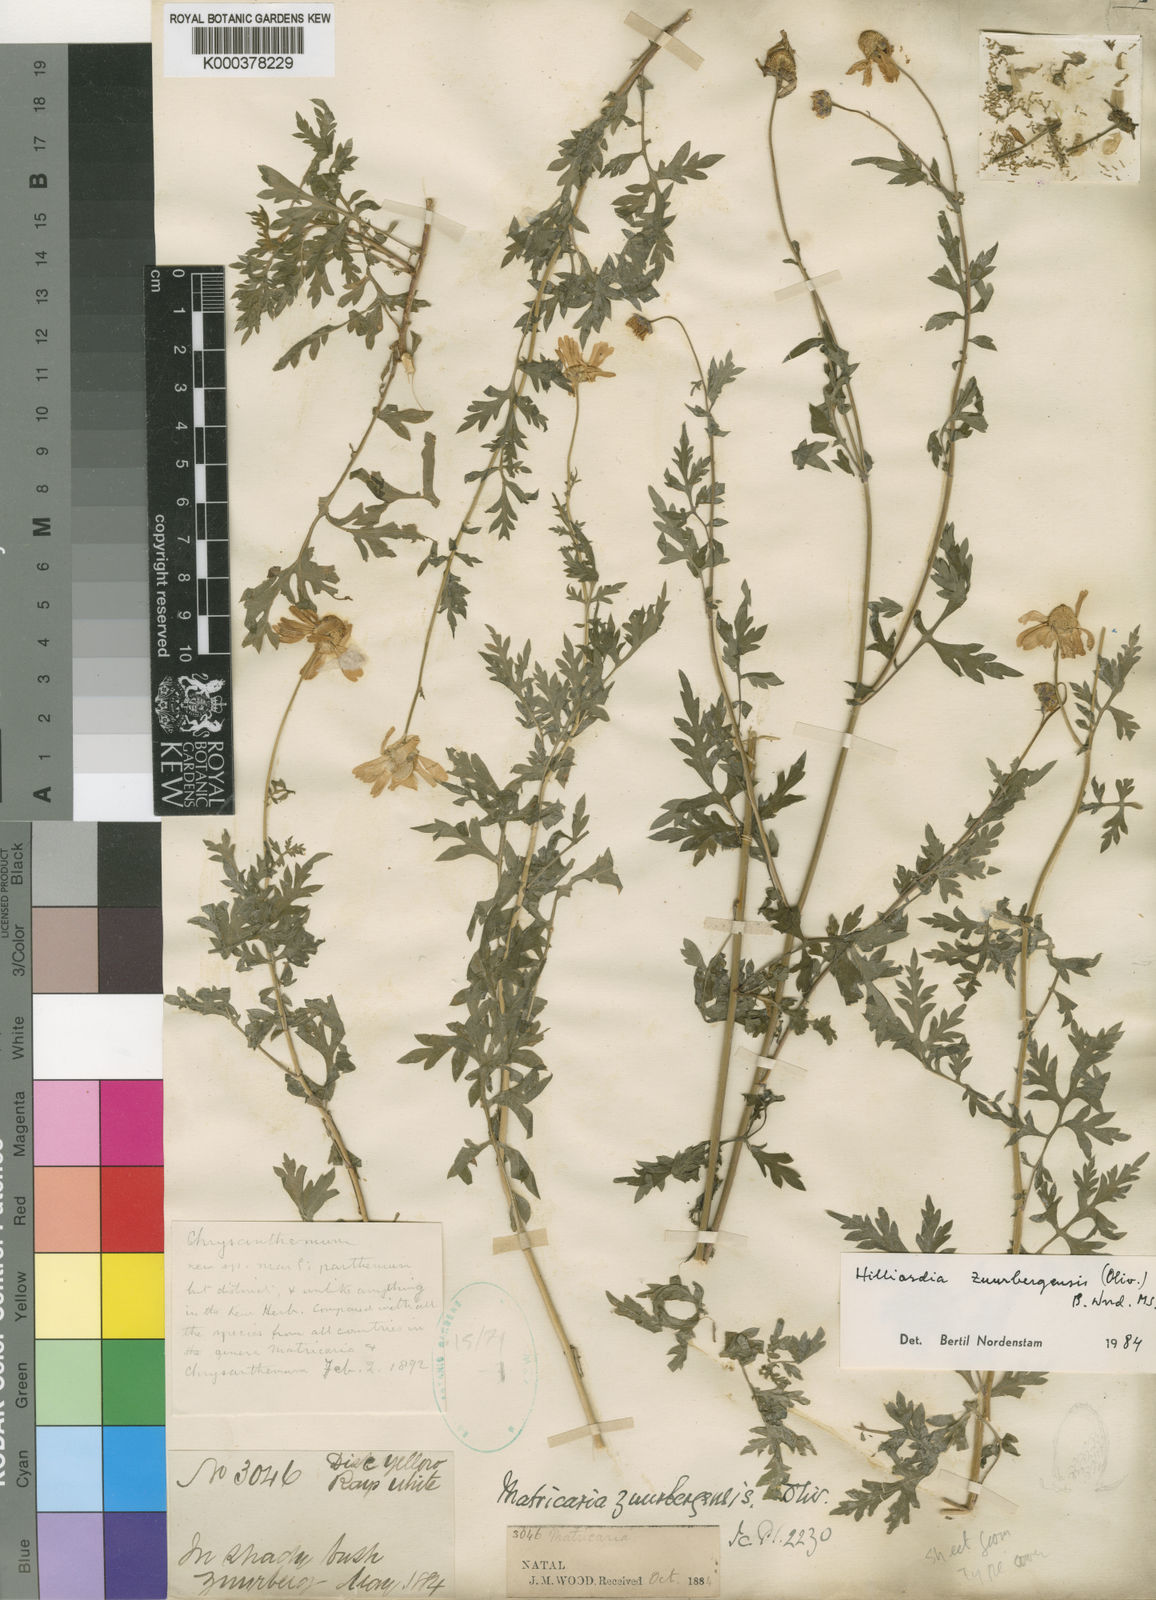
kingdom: Plantae
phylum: Tracheophyta
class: Magnoliopsida
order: Asterales
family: Asteraceae
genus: Hilliardia
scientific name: Hilliardia zuurbergensis
